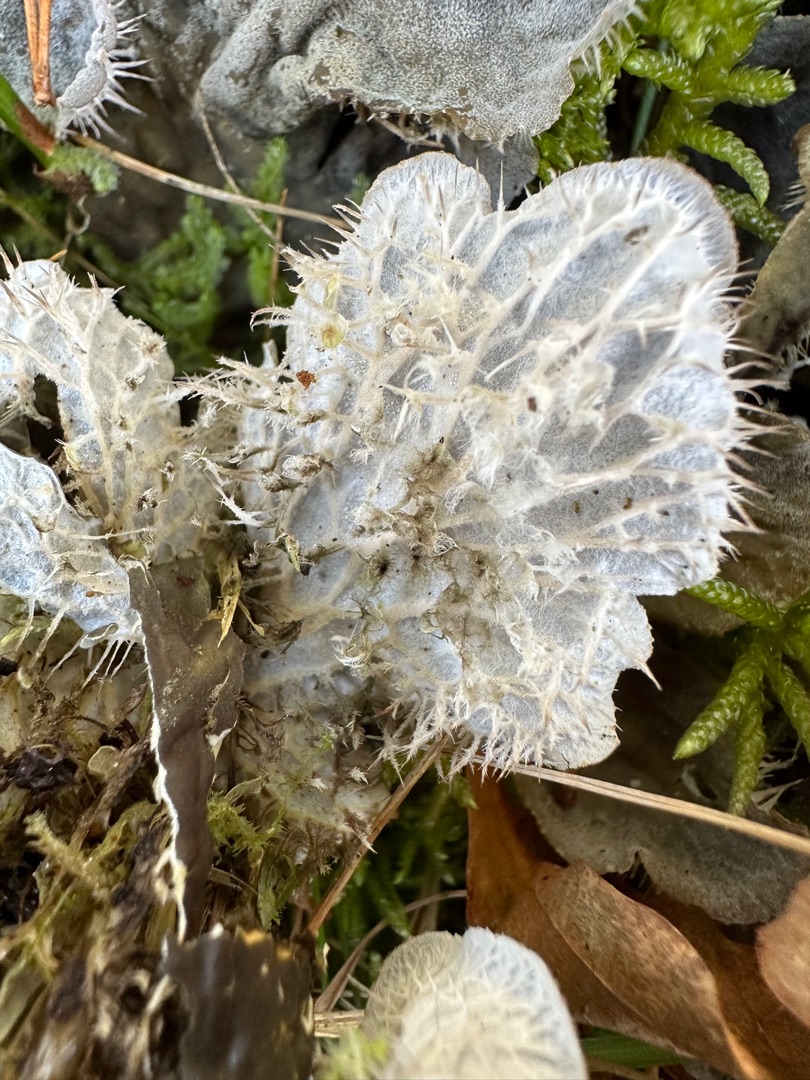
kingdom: Fungi
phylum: Ascomycota
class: Lecanoromycetes
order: Peltigerales
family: Peltigeraceae
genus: Peltigera
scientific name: Peltigera membranacea
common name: Tynd skjoldlav
